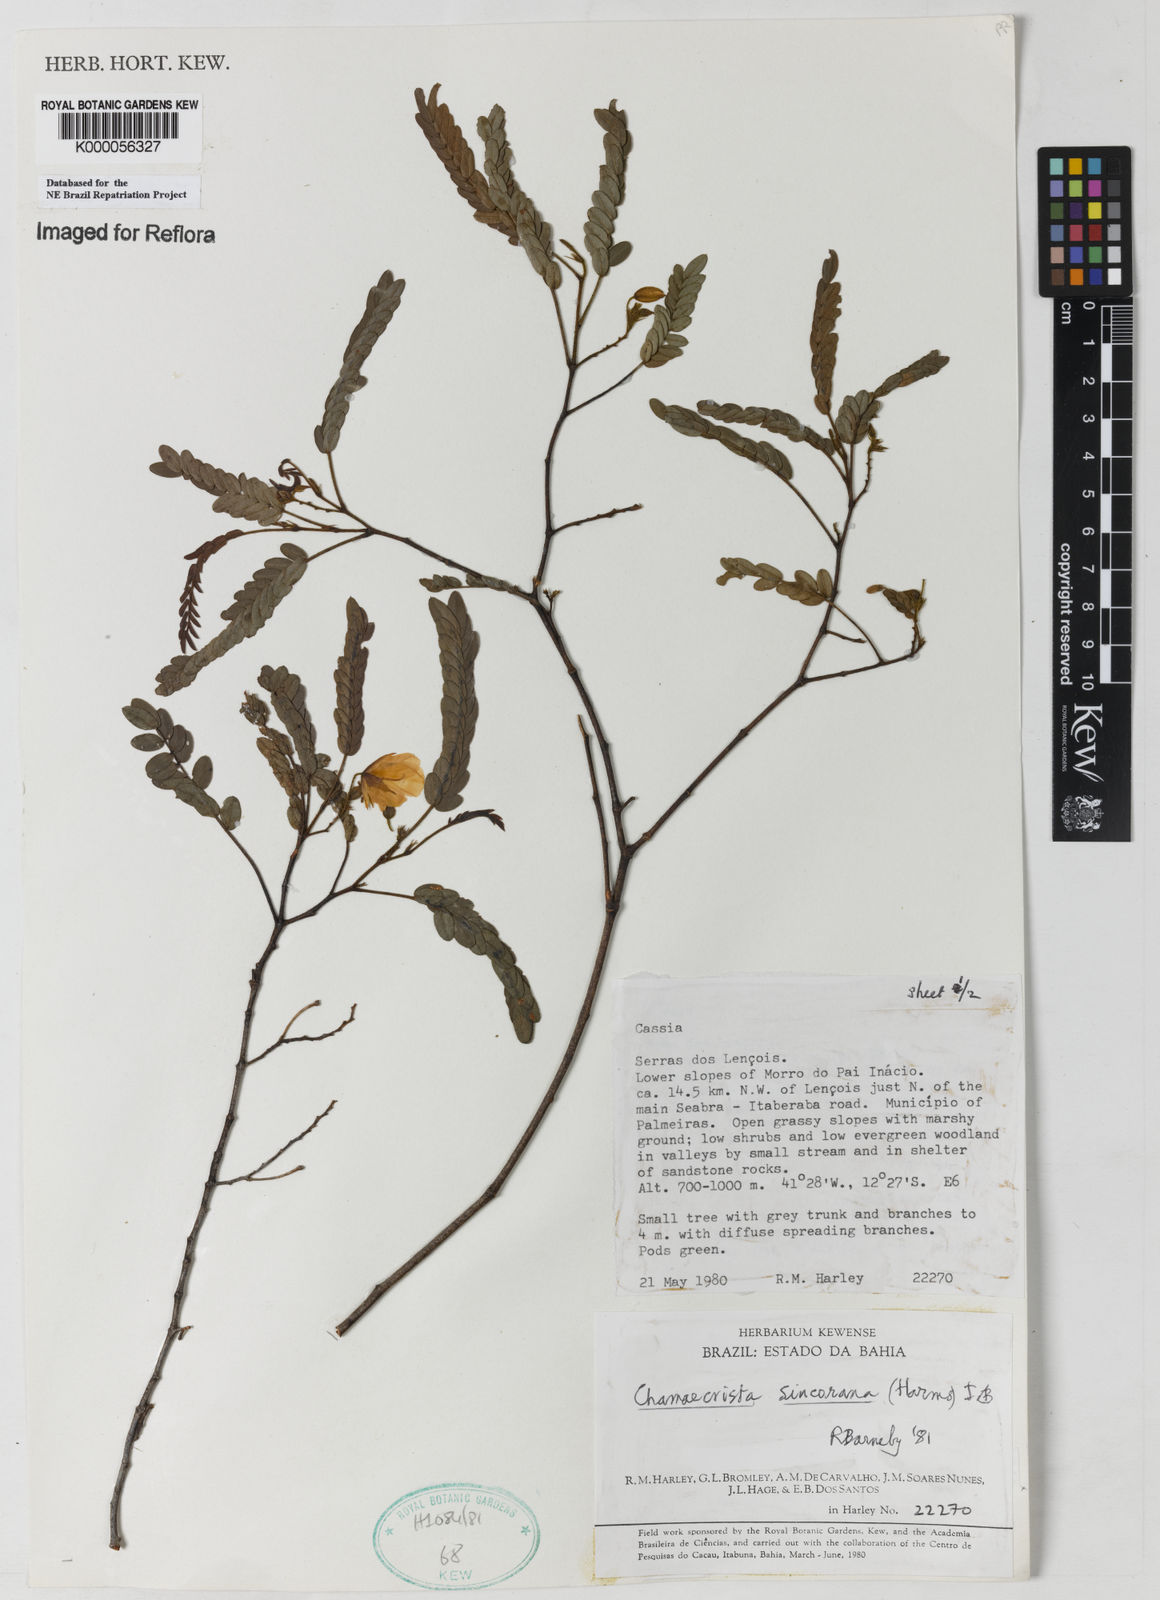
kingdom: Plantae
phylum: Tracheophyta
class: Magnoliopsida
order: Fabales
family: Fabaceae
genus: Chamaecrista
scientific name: Chamaecrista sincorana
